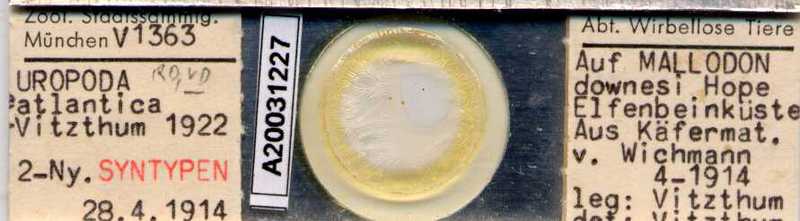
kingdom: Animalia
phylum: Arthropoda
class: Arachnida
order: Mesostigmata
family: Trematuridae
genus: Trichouropoda
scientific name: Trichouropoda
